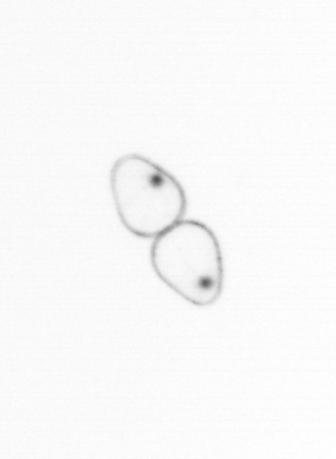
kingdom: Chromista
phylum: Myzozoa
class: Dinophyceae
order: Noctilucales
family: Noctilucaceae
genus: Noctiluca
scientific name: Noctiluca scintillans
